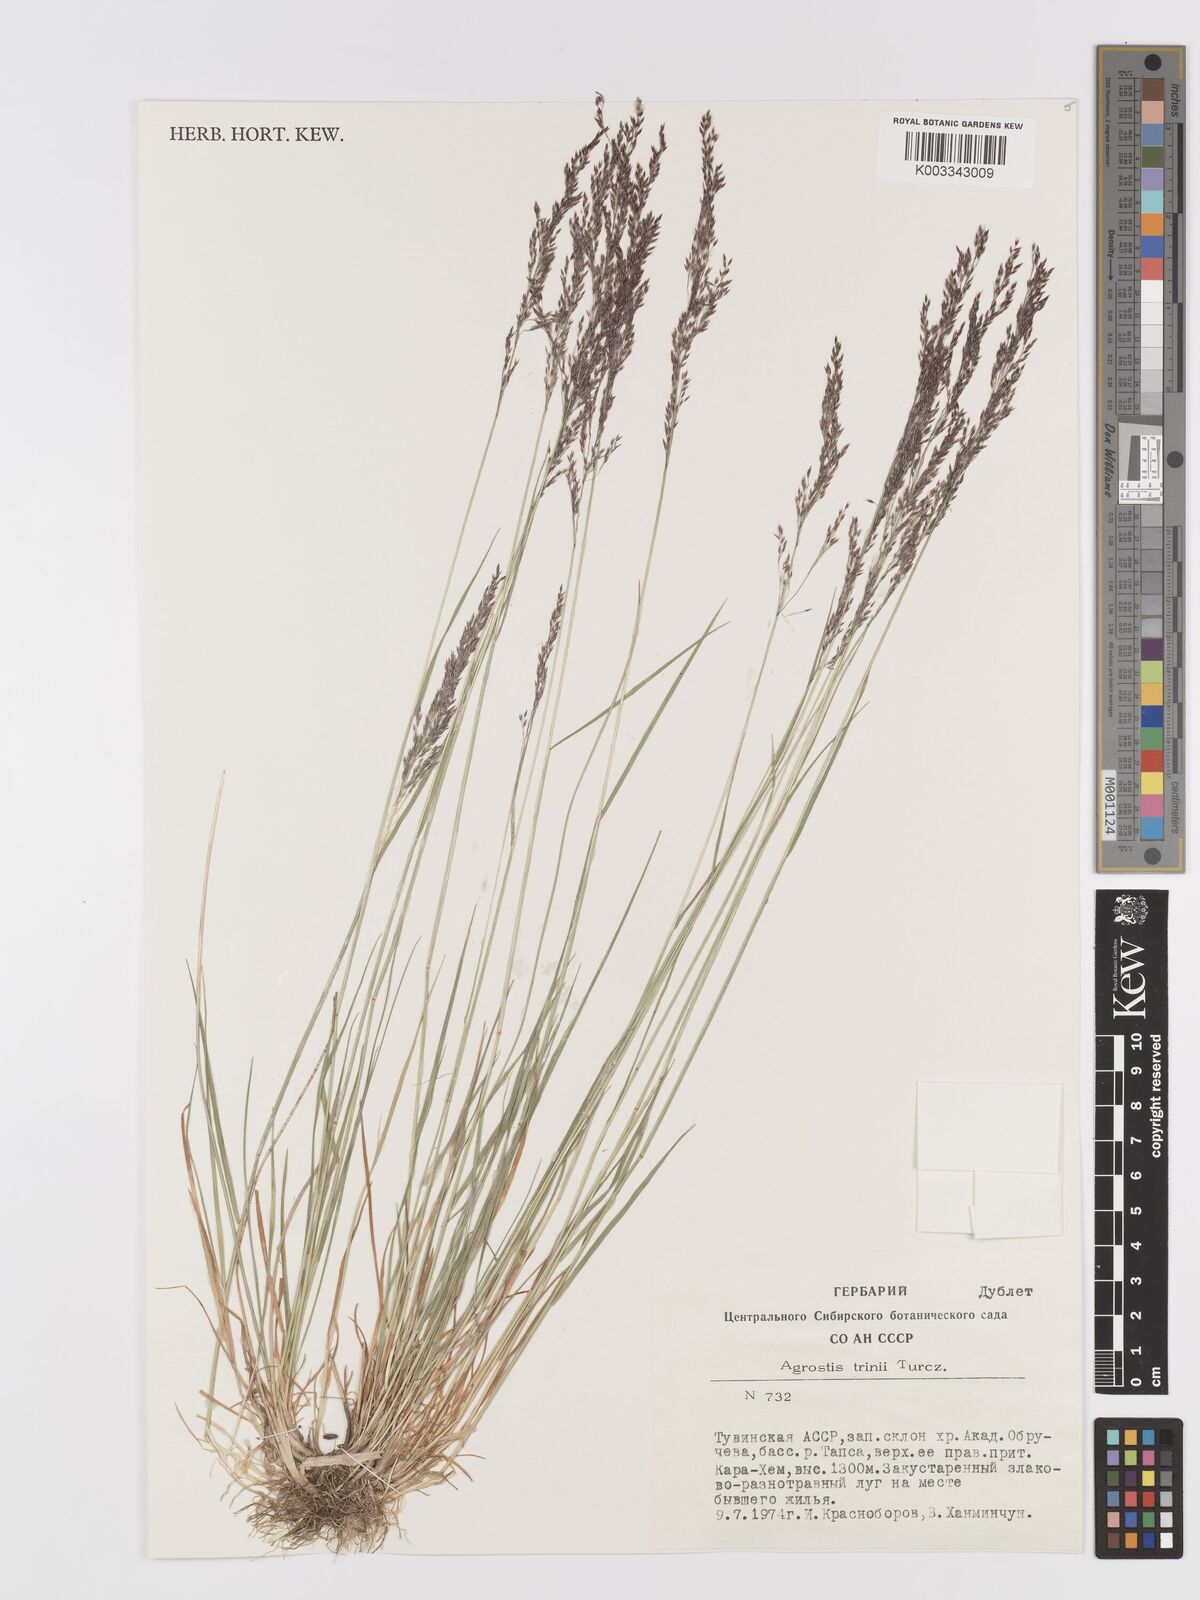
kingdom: Plantae
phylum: Tracheophyta
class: Liliopsida
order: Poales
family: Poaceae
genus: Agrostis
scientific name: Agrostis vinealis
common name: Brown bent
